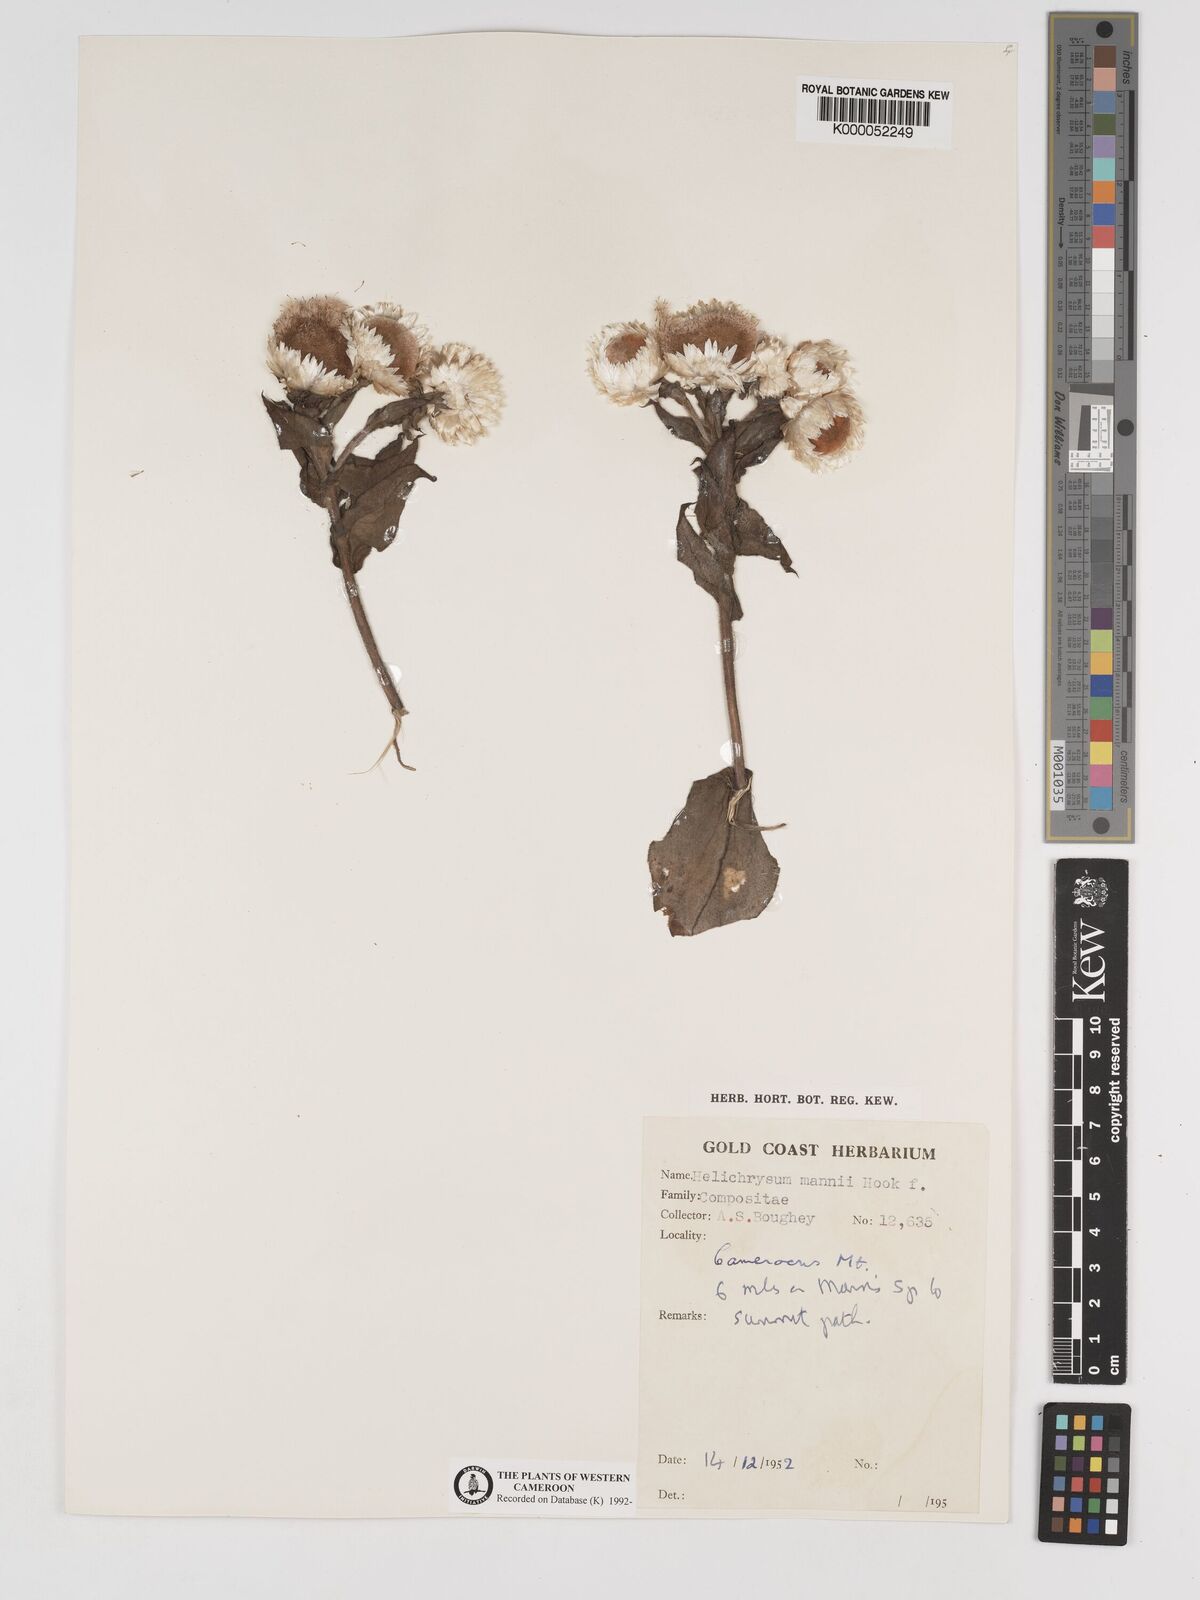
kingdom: Plantae
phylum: Tracheophyta
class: Magnoliopsida
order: Asterales
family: Asteraceae
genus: Helichrysum
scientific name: Helichrysum mannii
